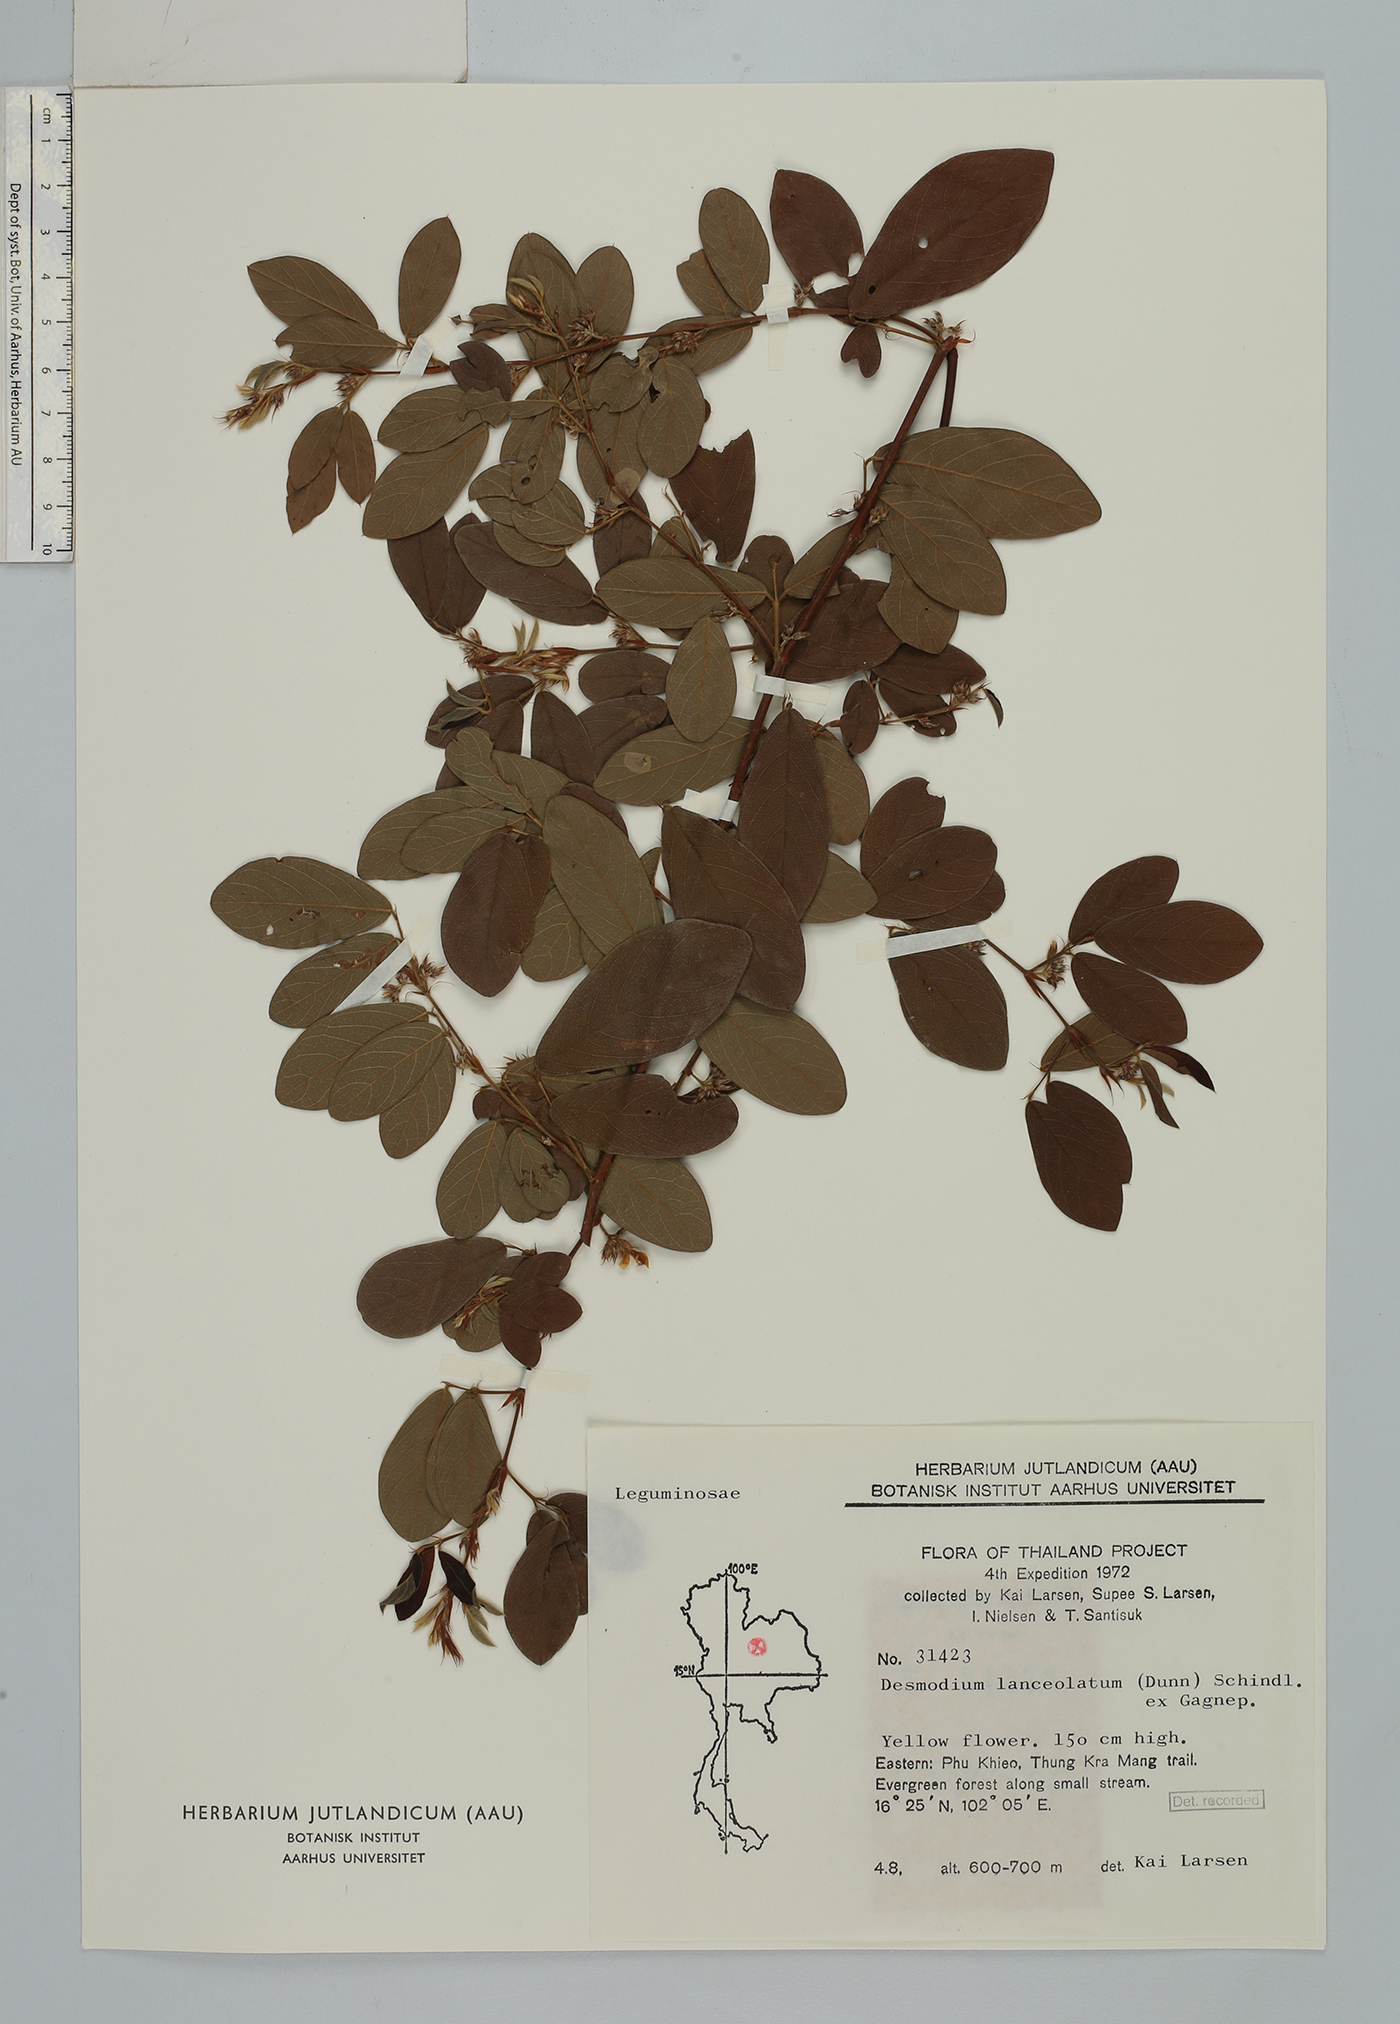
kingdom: Plantae
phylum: Tracheophyta
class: Magnoliopsida
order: Fabales
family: Fabaceae
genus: Dendrolobium
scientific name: Dendrolobium lanceolatum
